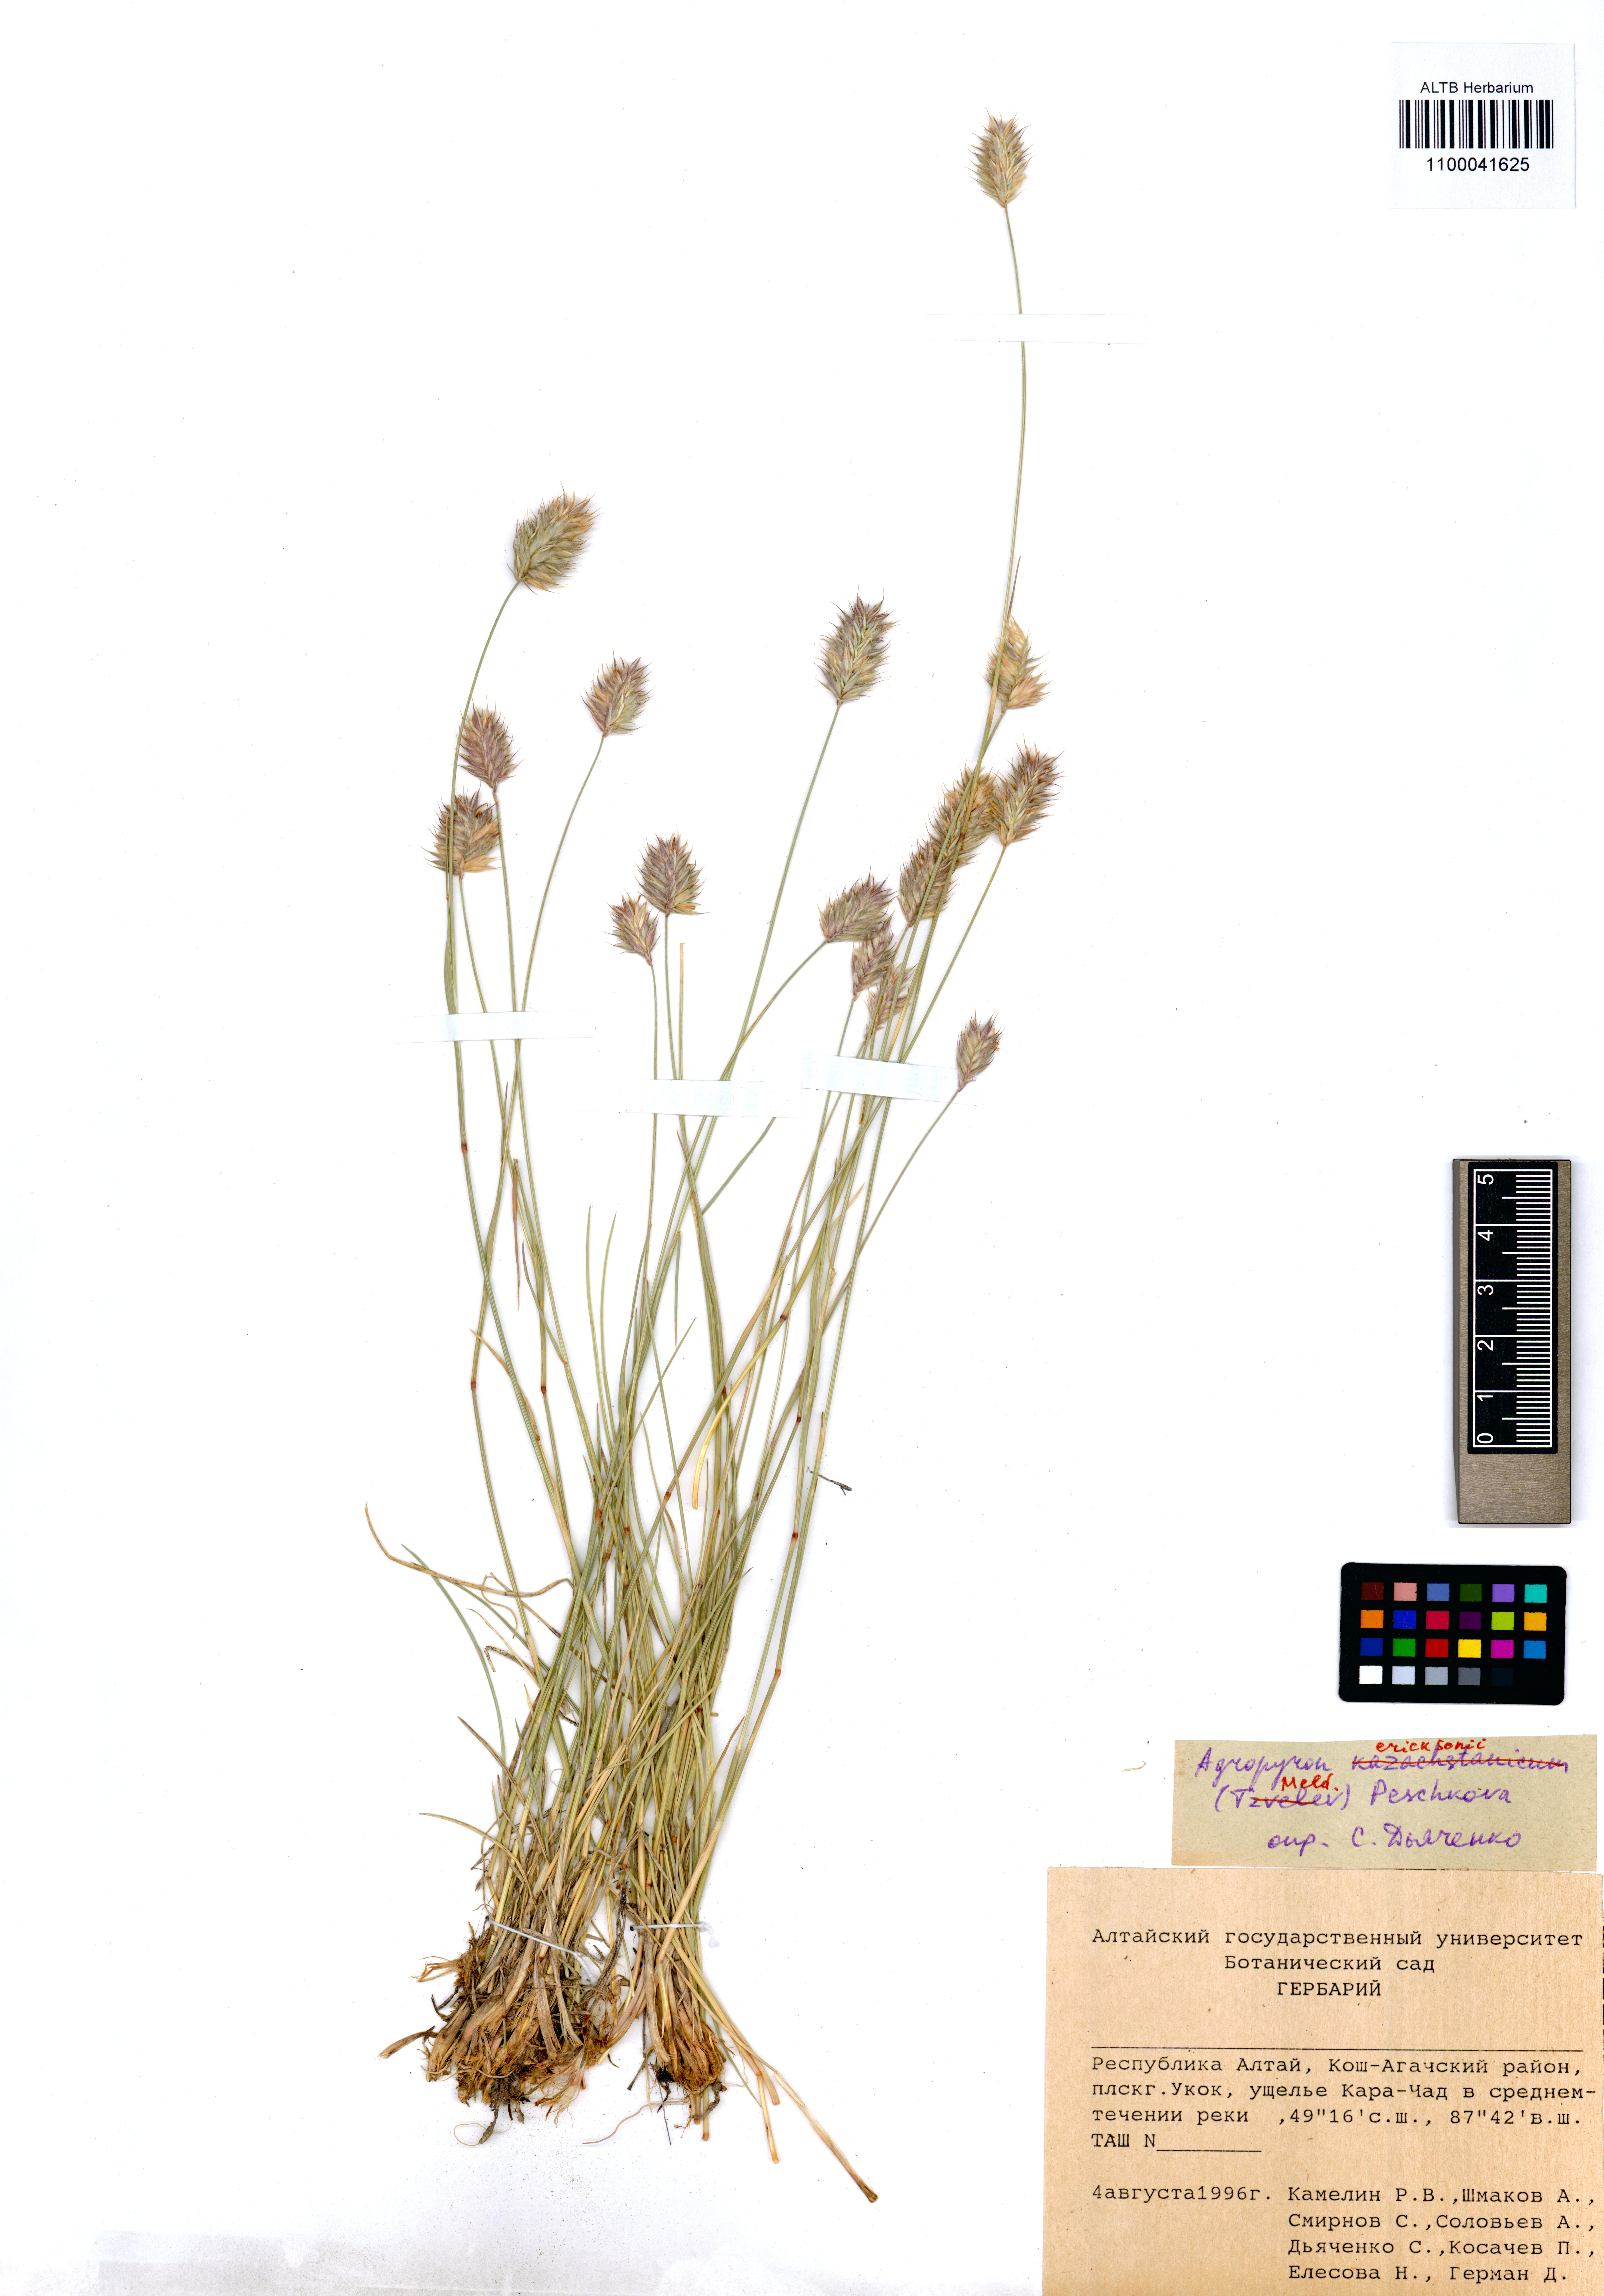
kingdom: Plantae
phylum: Tracheophyta
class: Liliopsida
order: Poales
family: Poaceae
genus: Agropyron
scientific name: Agropyron cristatum
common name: Crested wheatgrass
